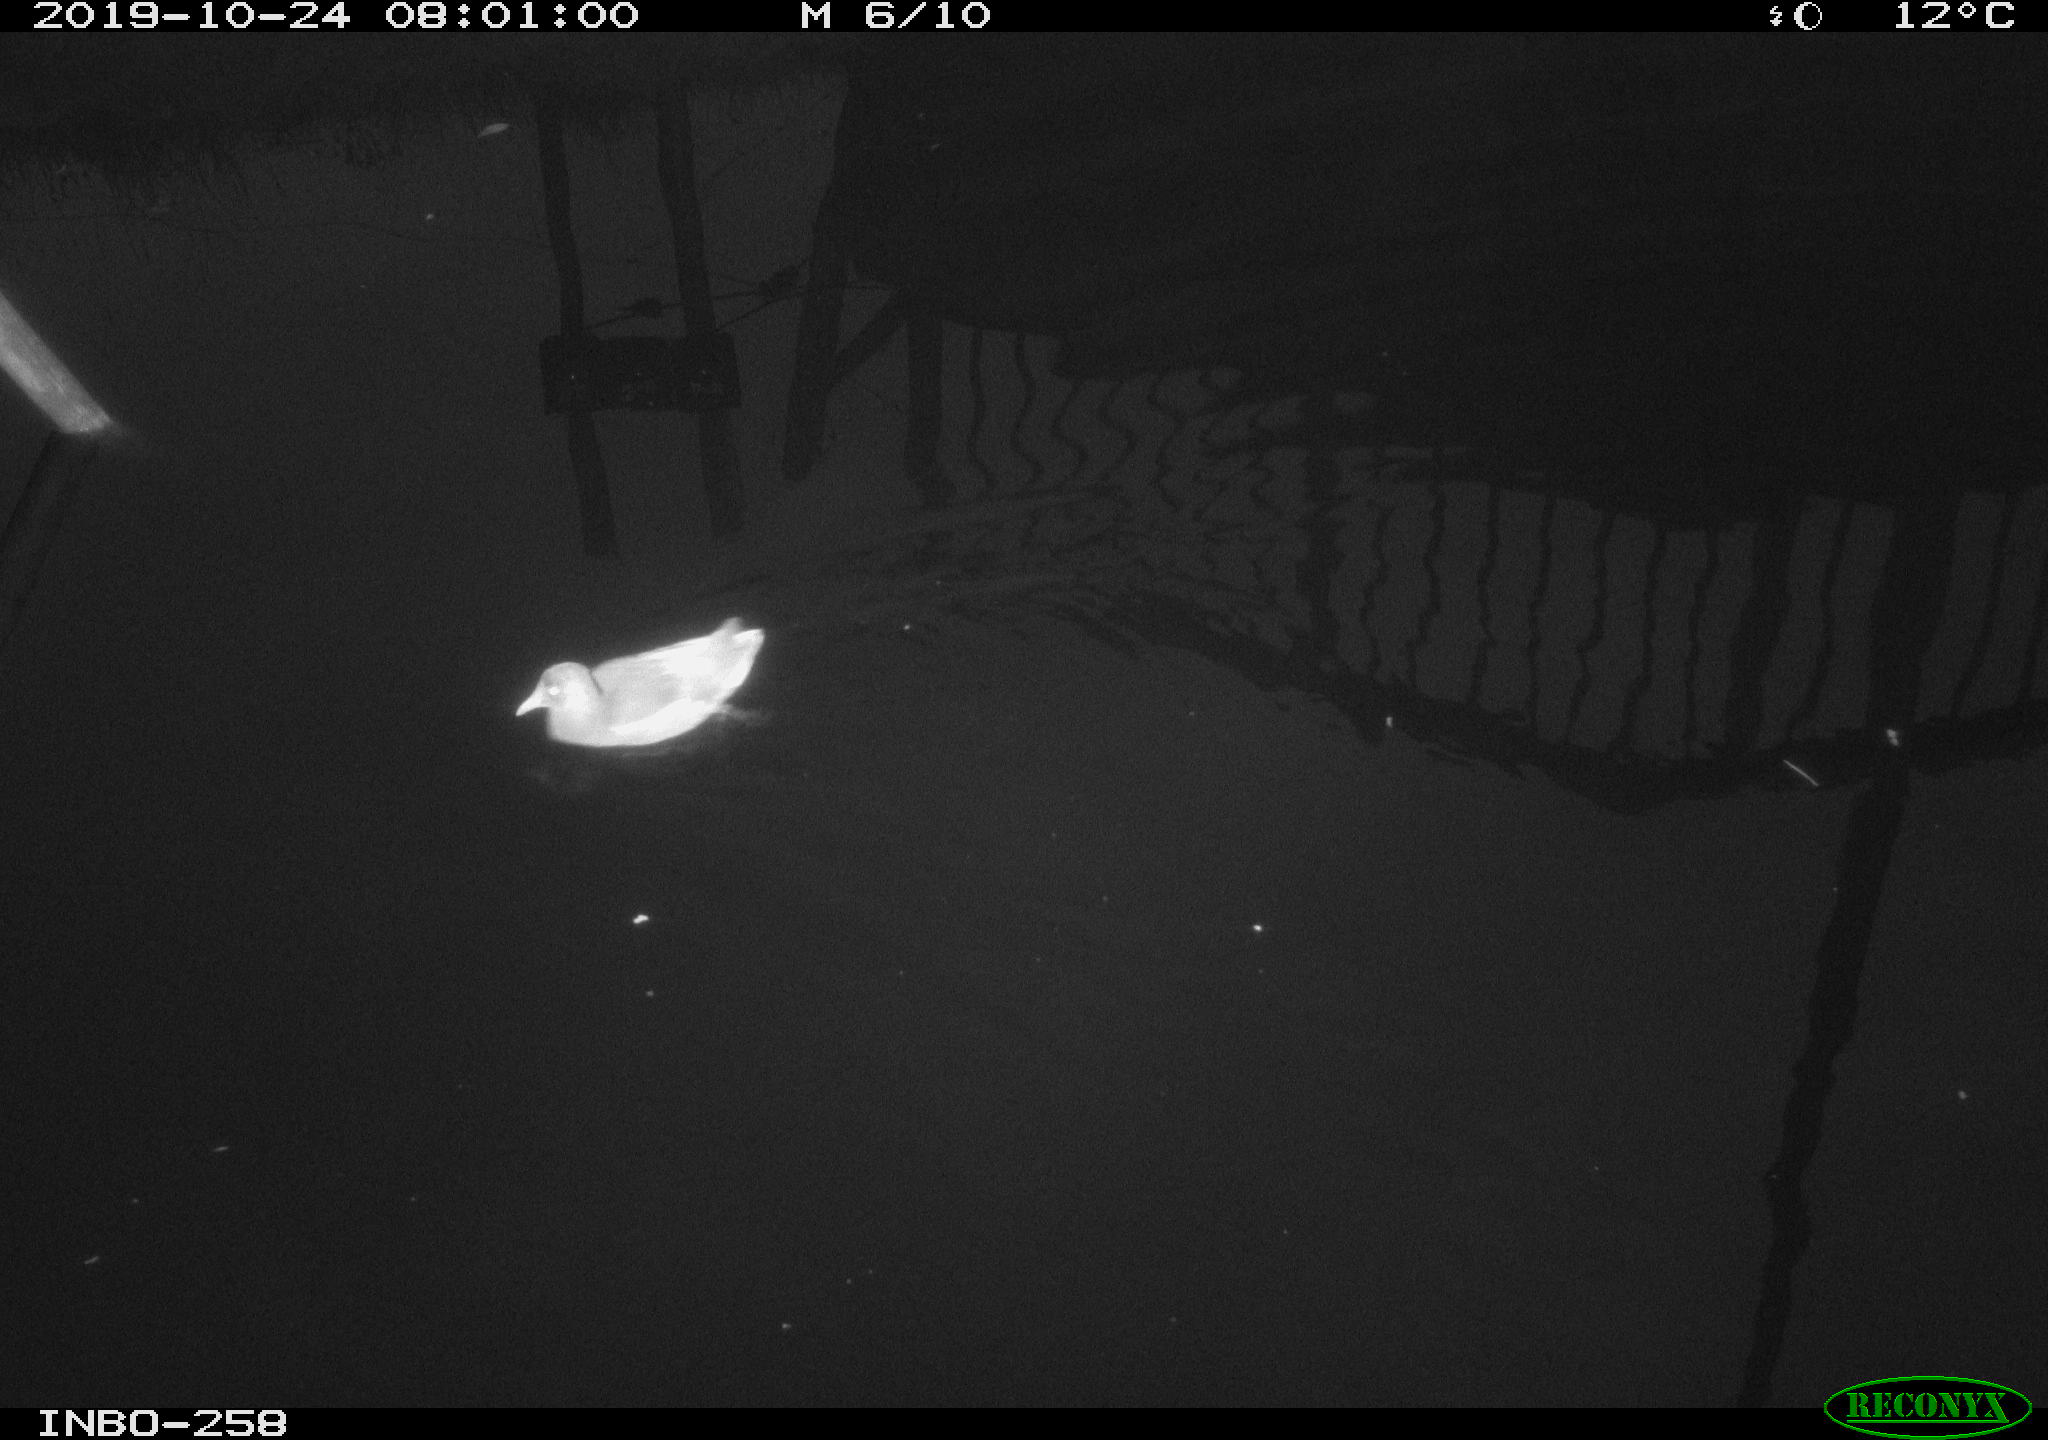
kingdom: Animalia
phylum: Chordata
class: Aves
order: Gruiformes
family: Rallidae
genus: Gallinula
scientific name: Gallinula chloropus
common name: Common moorhen
